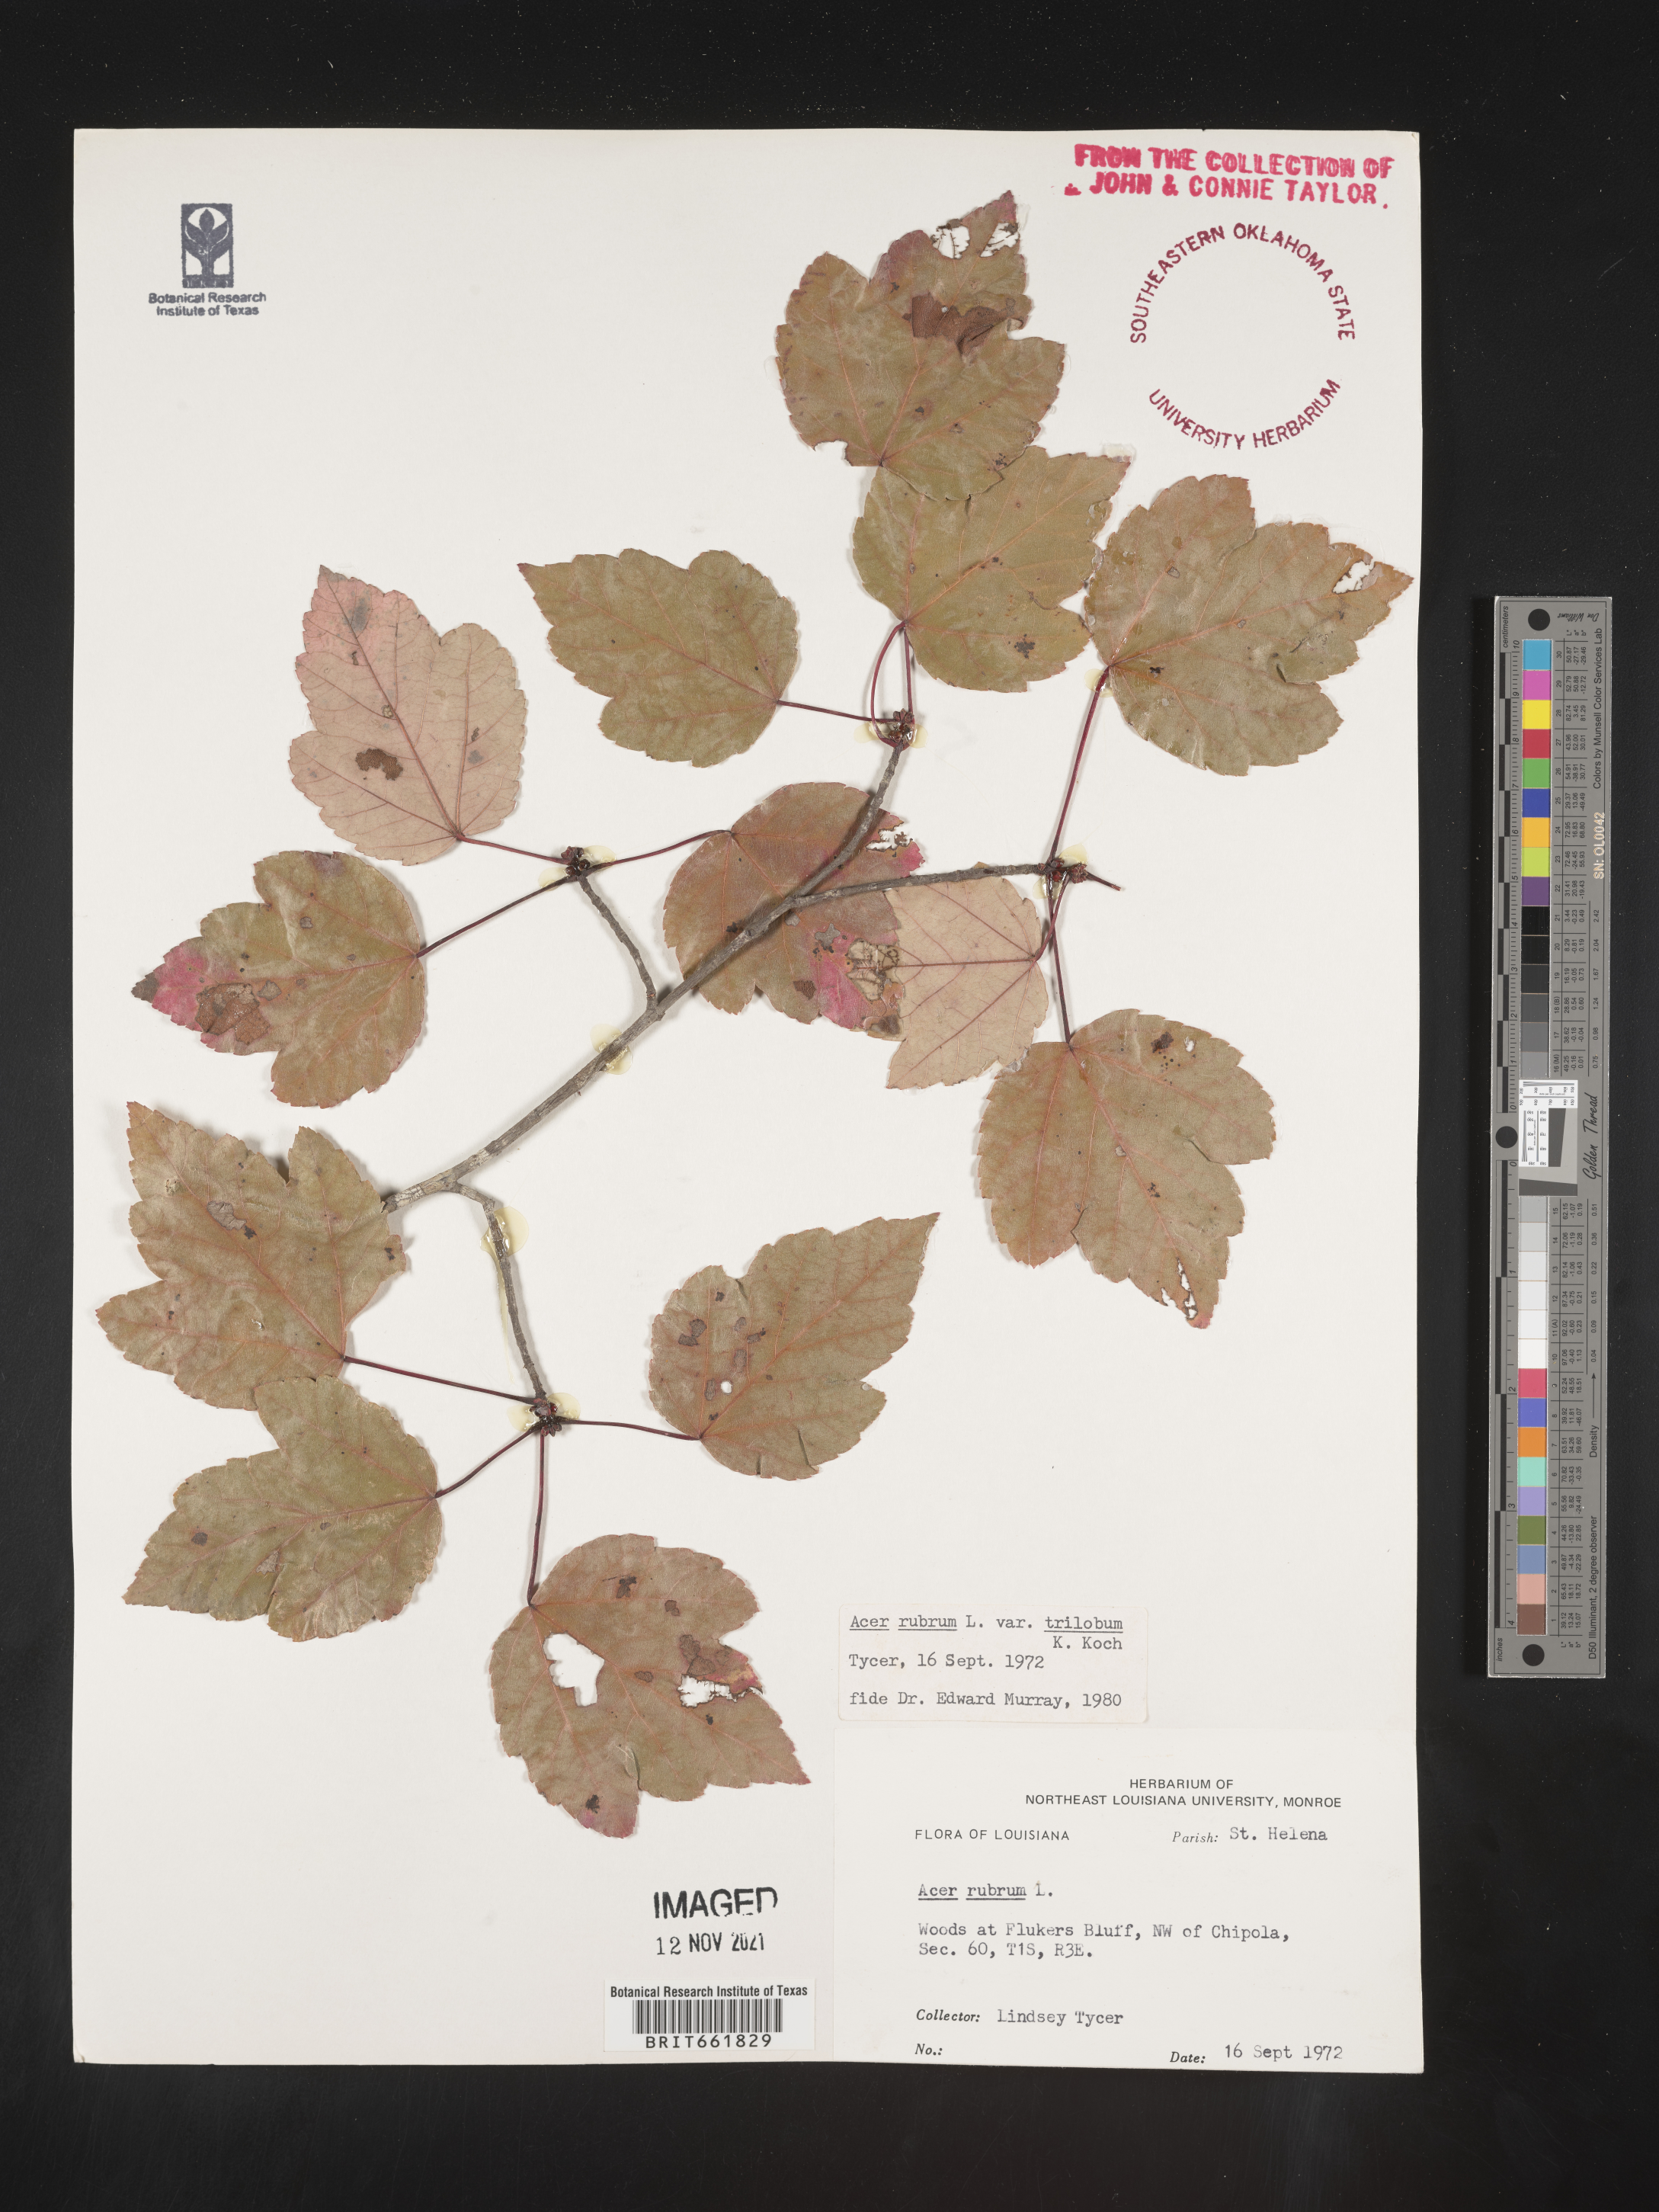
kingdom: Plantae
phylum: Tracheophyta
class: Magnoliopsida
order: Sapindales
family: Sapindaceae
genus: Acer
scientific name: Acer rubrum
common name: Red maple
